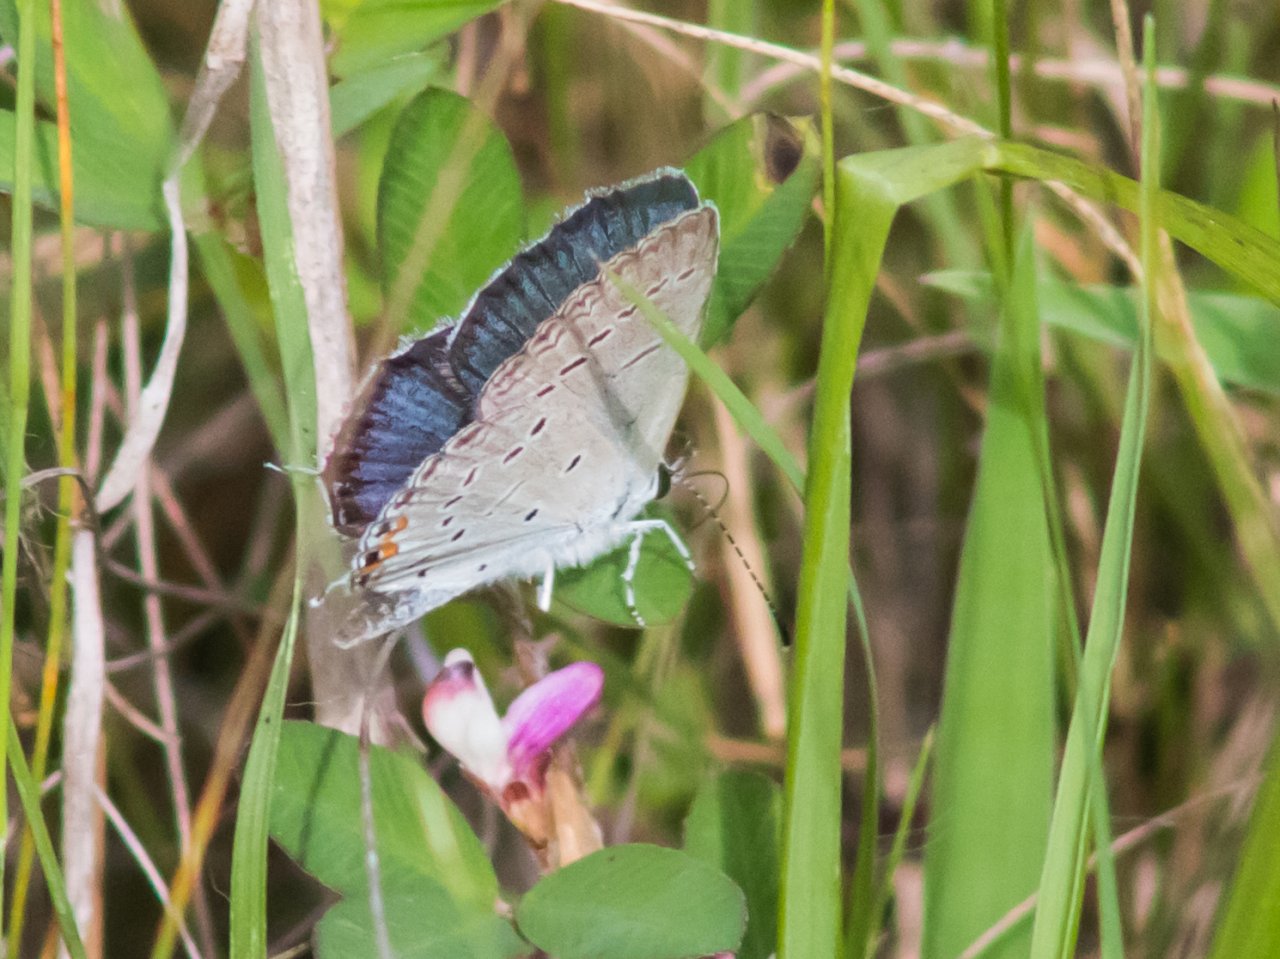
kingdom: Animalia
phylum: Arthropoda
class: Insecta
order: Lepidoptera
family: Lycaenidae
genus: Elkalyce
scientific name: Elkalyce comyntas
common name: Eastern Tailed-Blue
